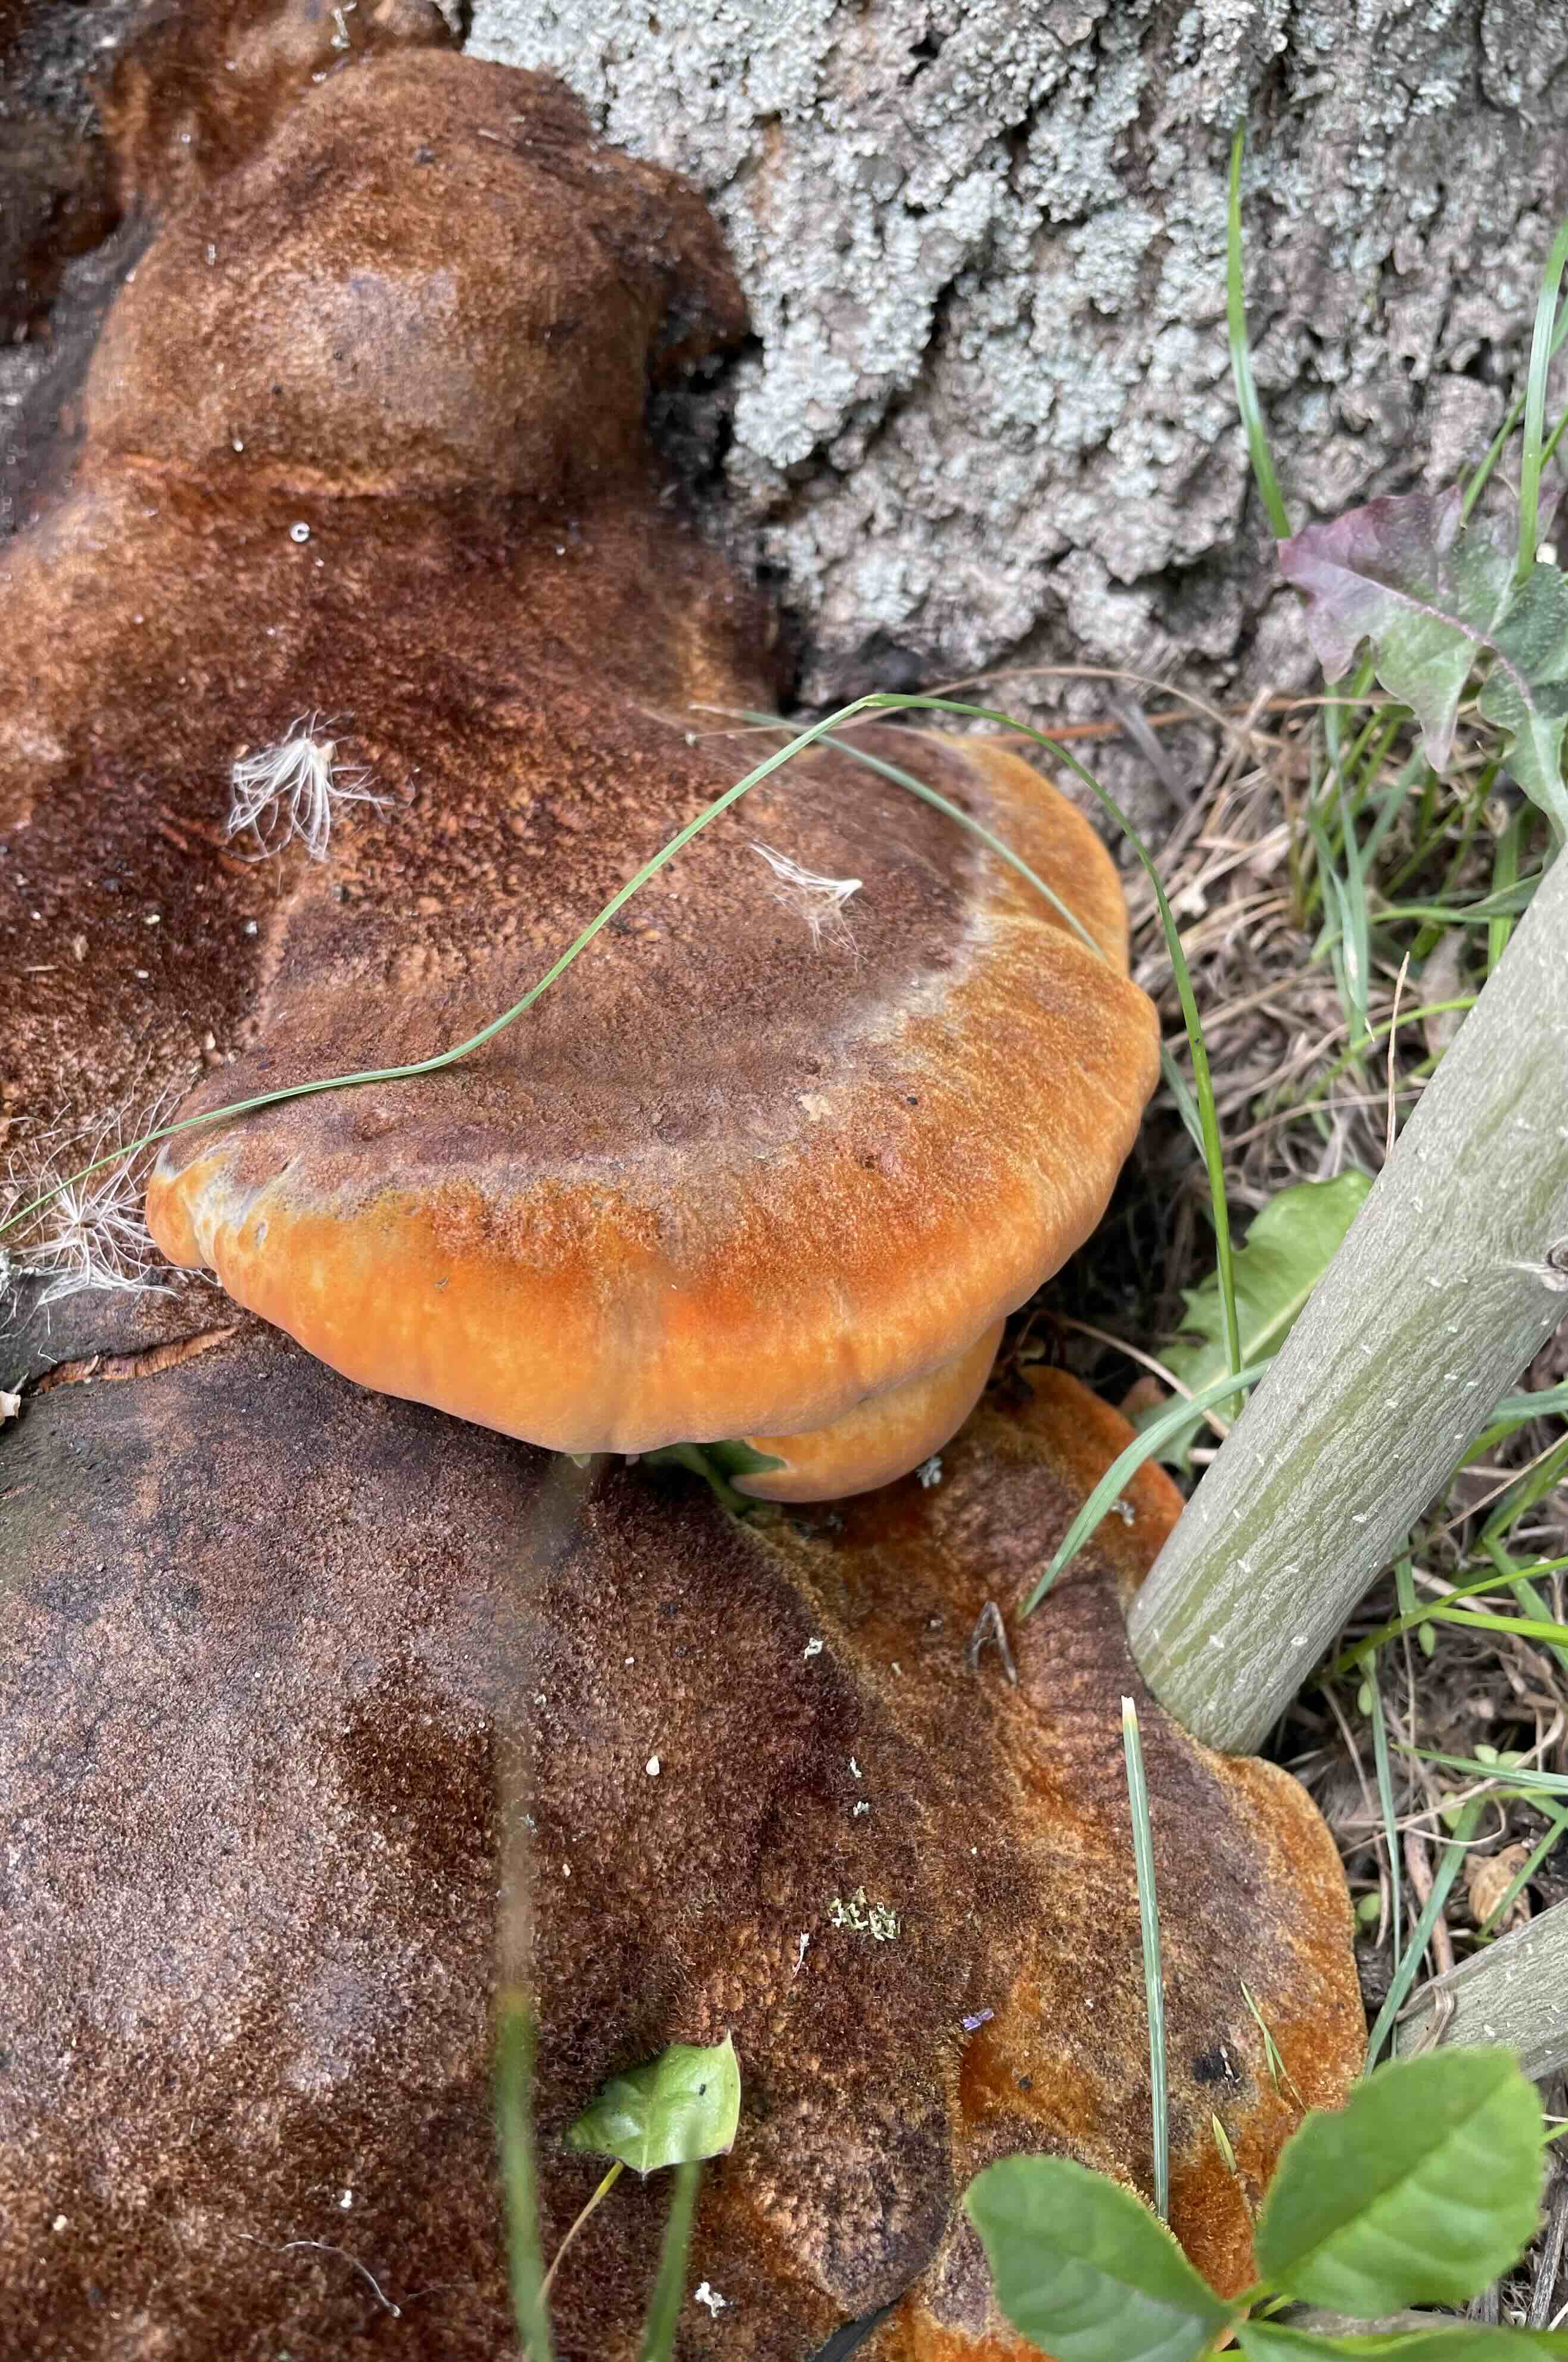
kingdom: Fungi
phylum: Basidiomycota
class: Agaricomycetes
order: Hymenochaetales
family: Hymenochaetaceae
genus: Inonotus
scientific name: Inonotus hispidus
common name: børstehåret spejlporesvamp
